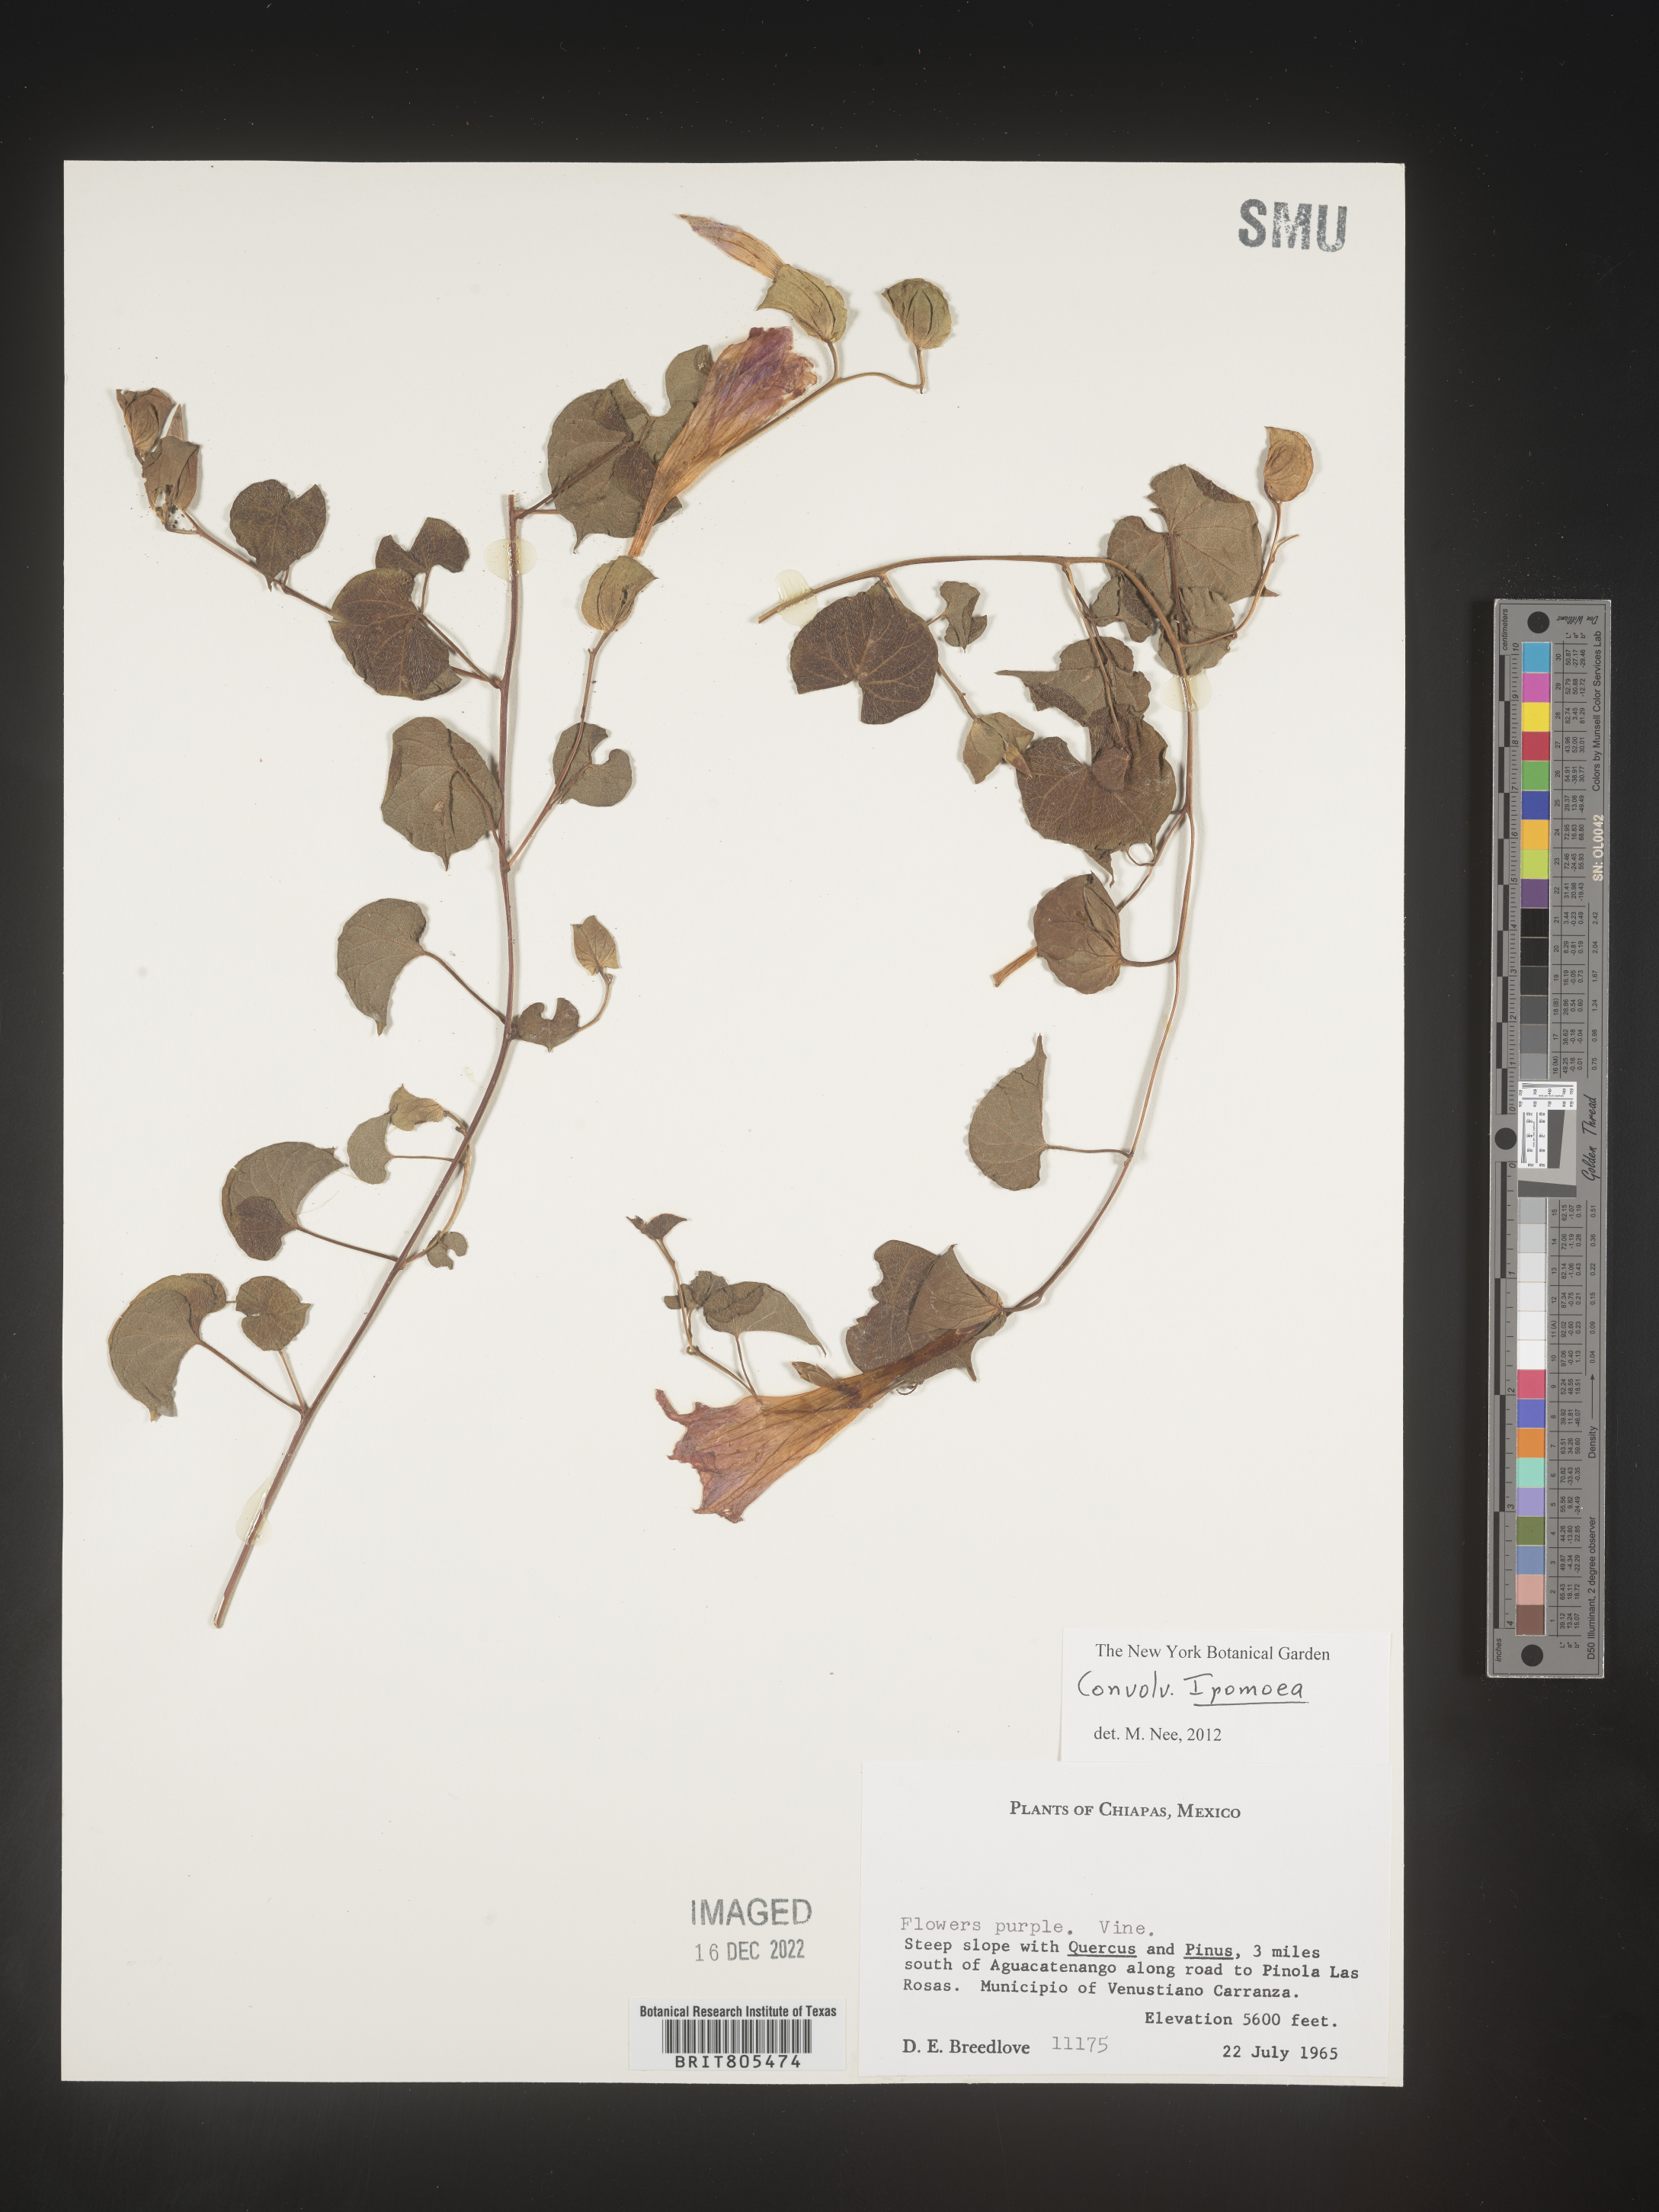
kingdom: Plantae
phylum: Tracheophyta
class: Magnoliopsida
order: Solanales
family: Convolvulaceae
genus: Ipomoea
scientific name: Ipomoea
